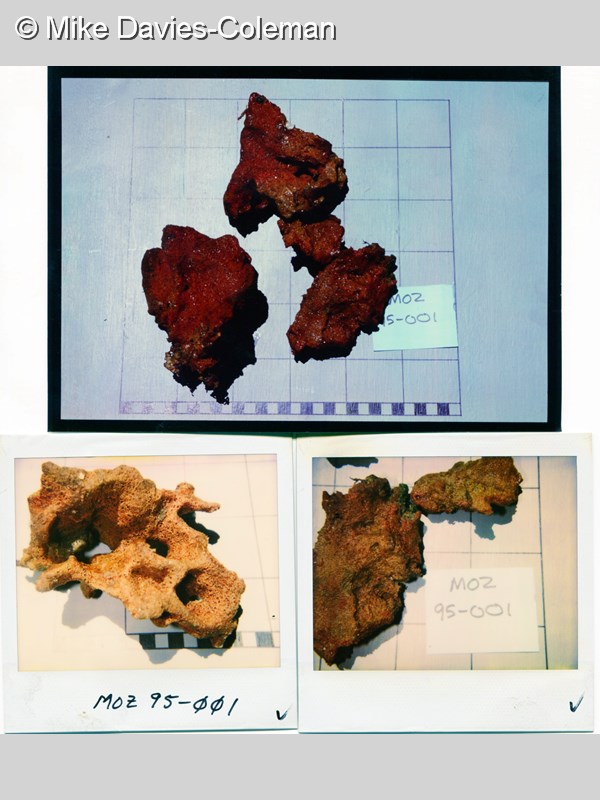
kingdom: Animalia
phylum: Porifera
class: Demospongiae
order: Poecilosclerida
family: Chondropsidae
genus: Chondropsis
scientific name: Chondropsis
